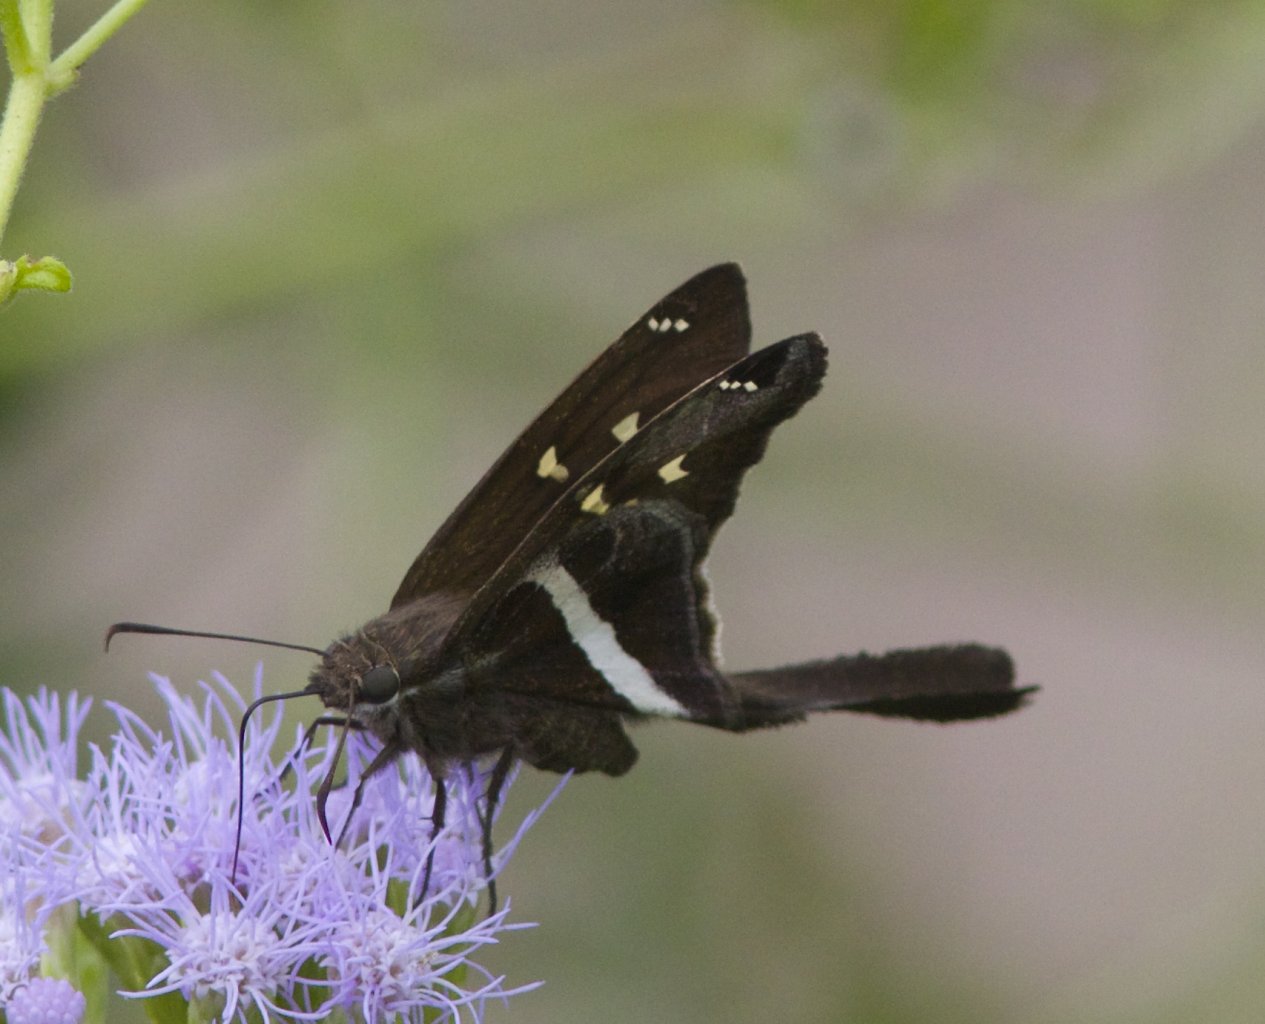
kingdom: Animalia
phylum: Arthropoda
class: Insecta
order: Lepidoptera
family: Hesperiidae
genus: Chioides
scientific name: Chioides catillus
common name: White-striped Longtail
